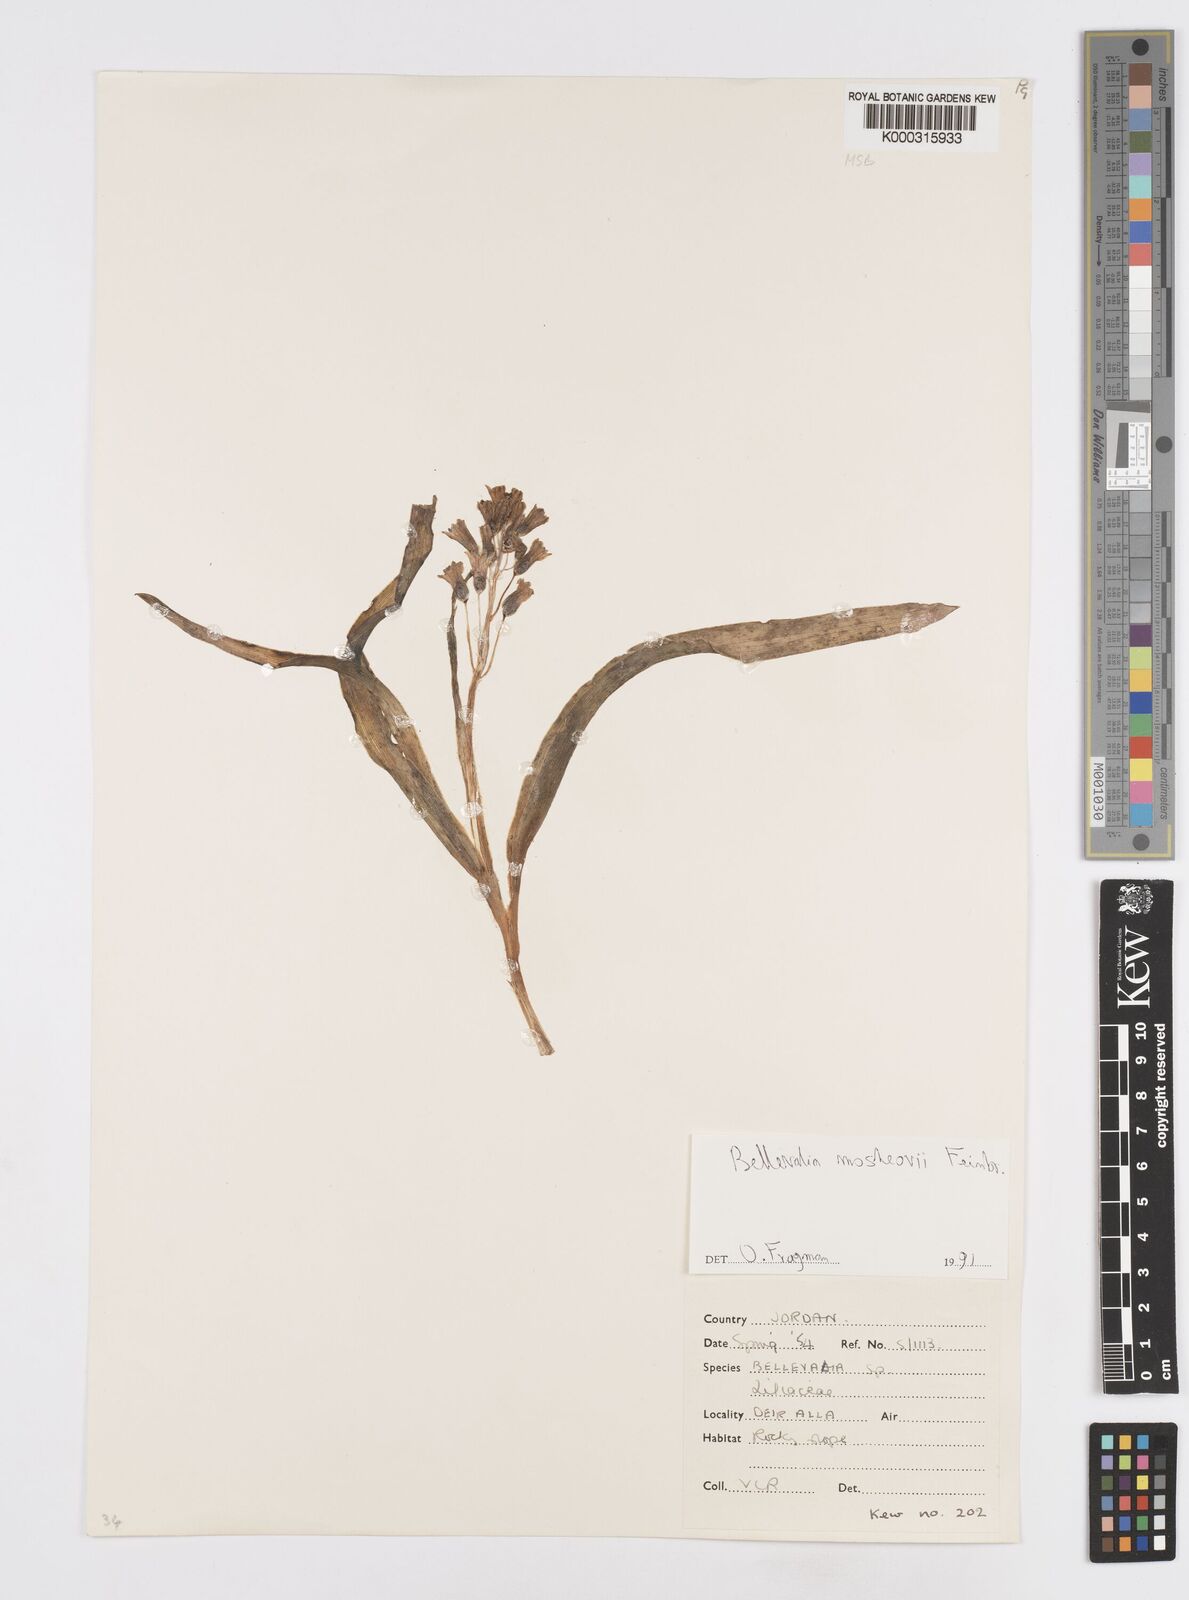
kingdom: Plantae
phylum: Tracheophyta
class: Liliopsida
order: Asparagales
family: Asparagaceae
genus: Bellevalia
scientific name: Bellevalia mosheovii
